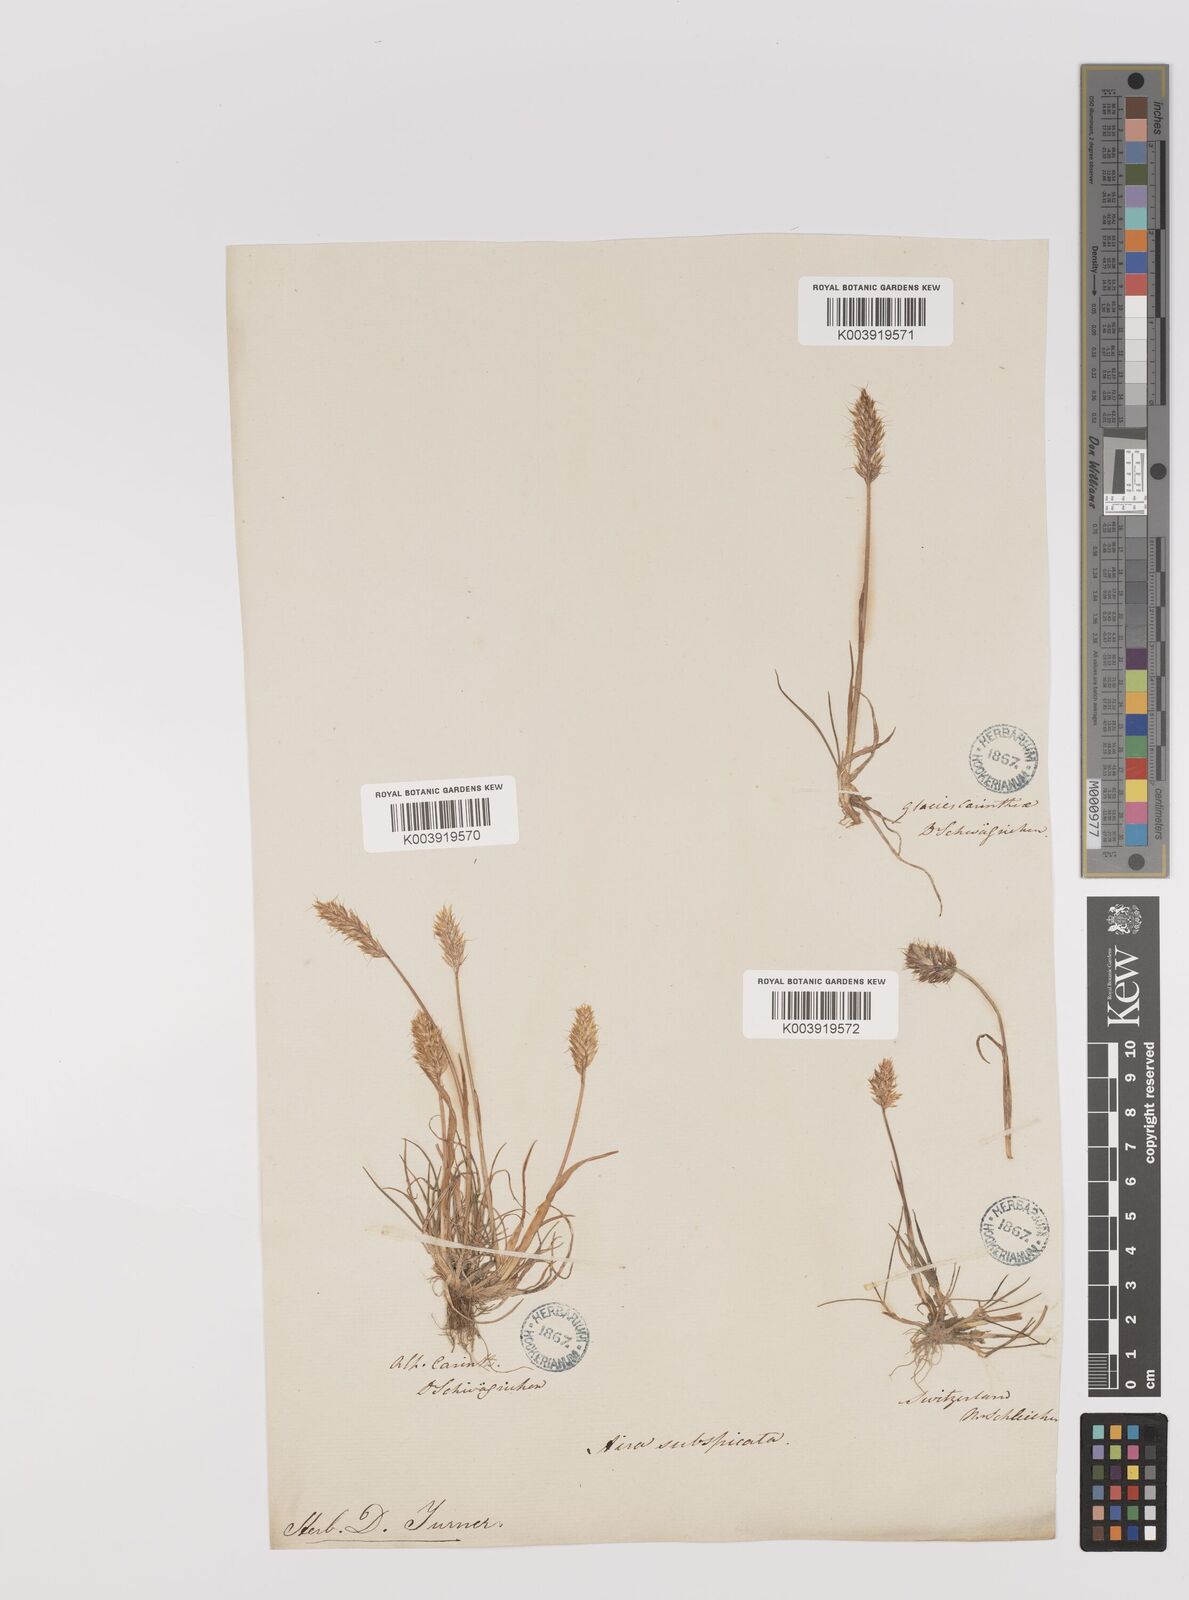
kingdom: Plantae
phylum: Tracheophyta
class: Liliopsida
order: Poales
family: Poaceae
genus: Koeleria
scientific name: Koeleria spicata
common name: Mountain trisetum
